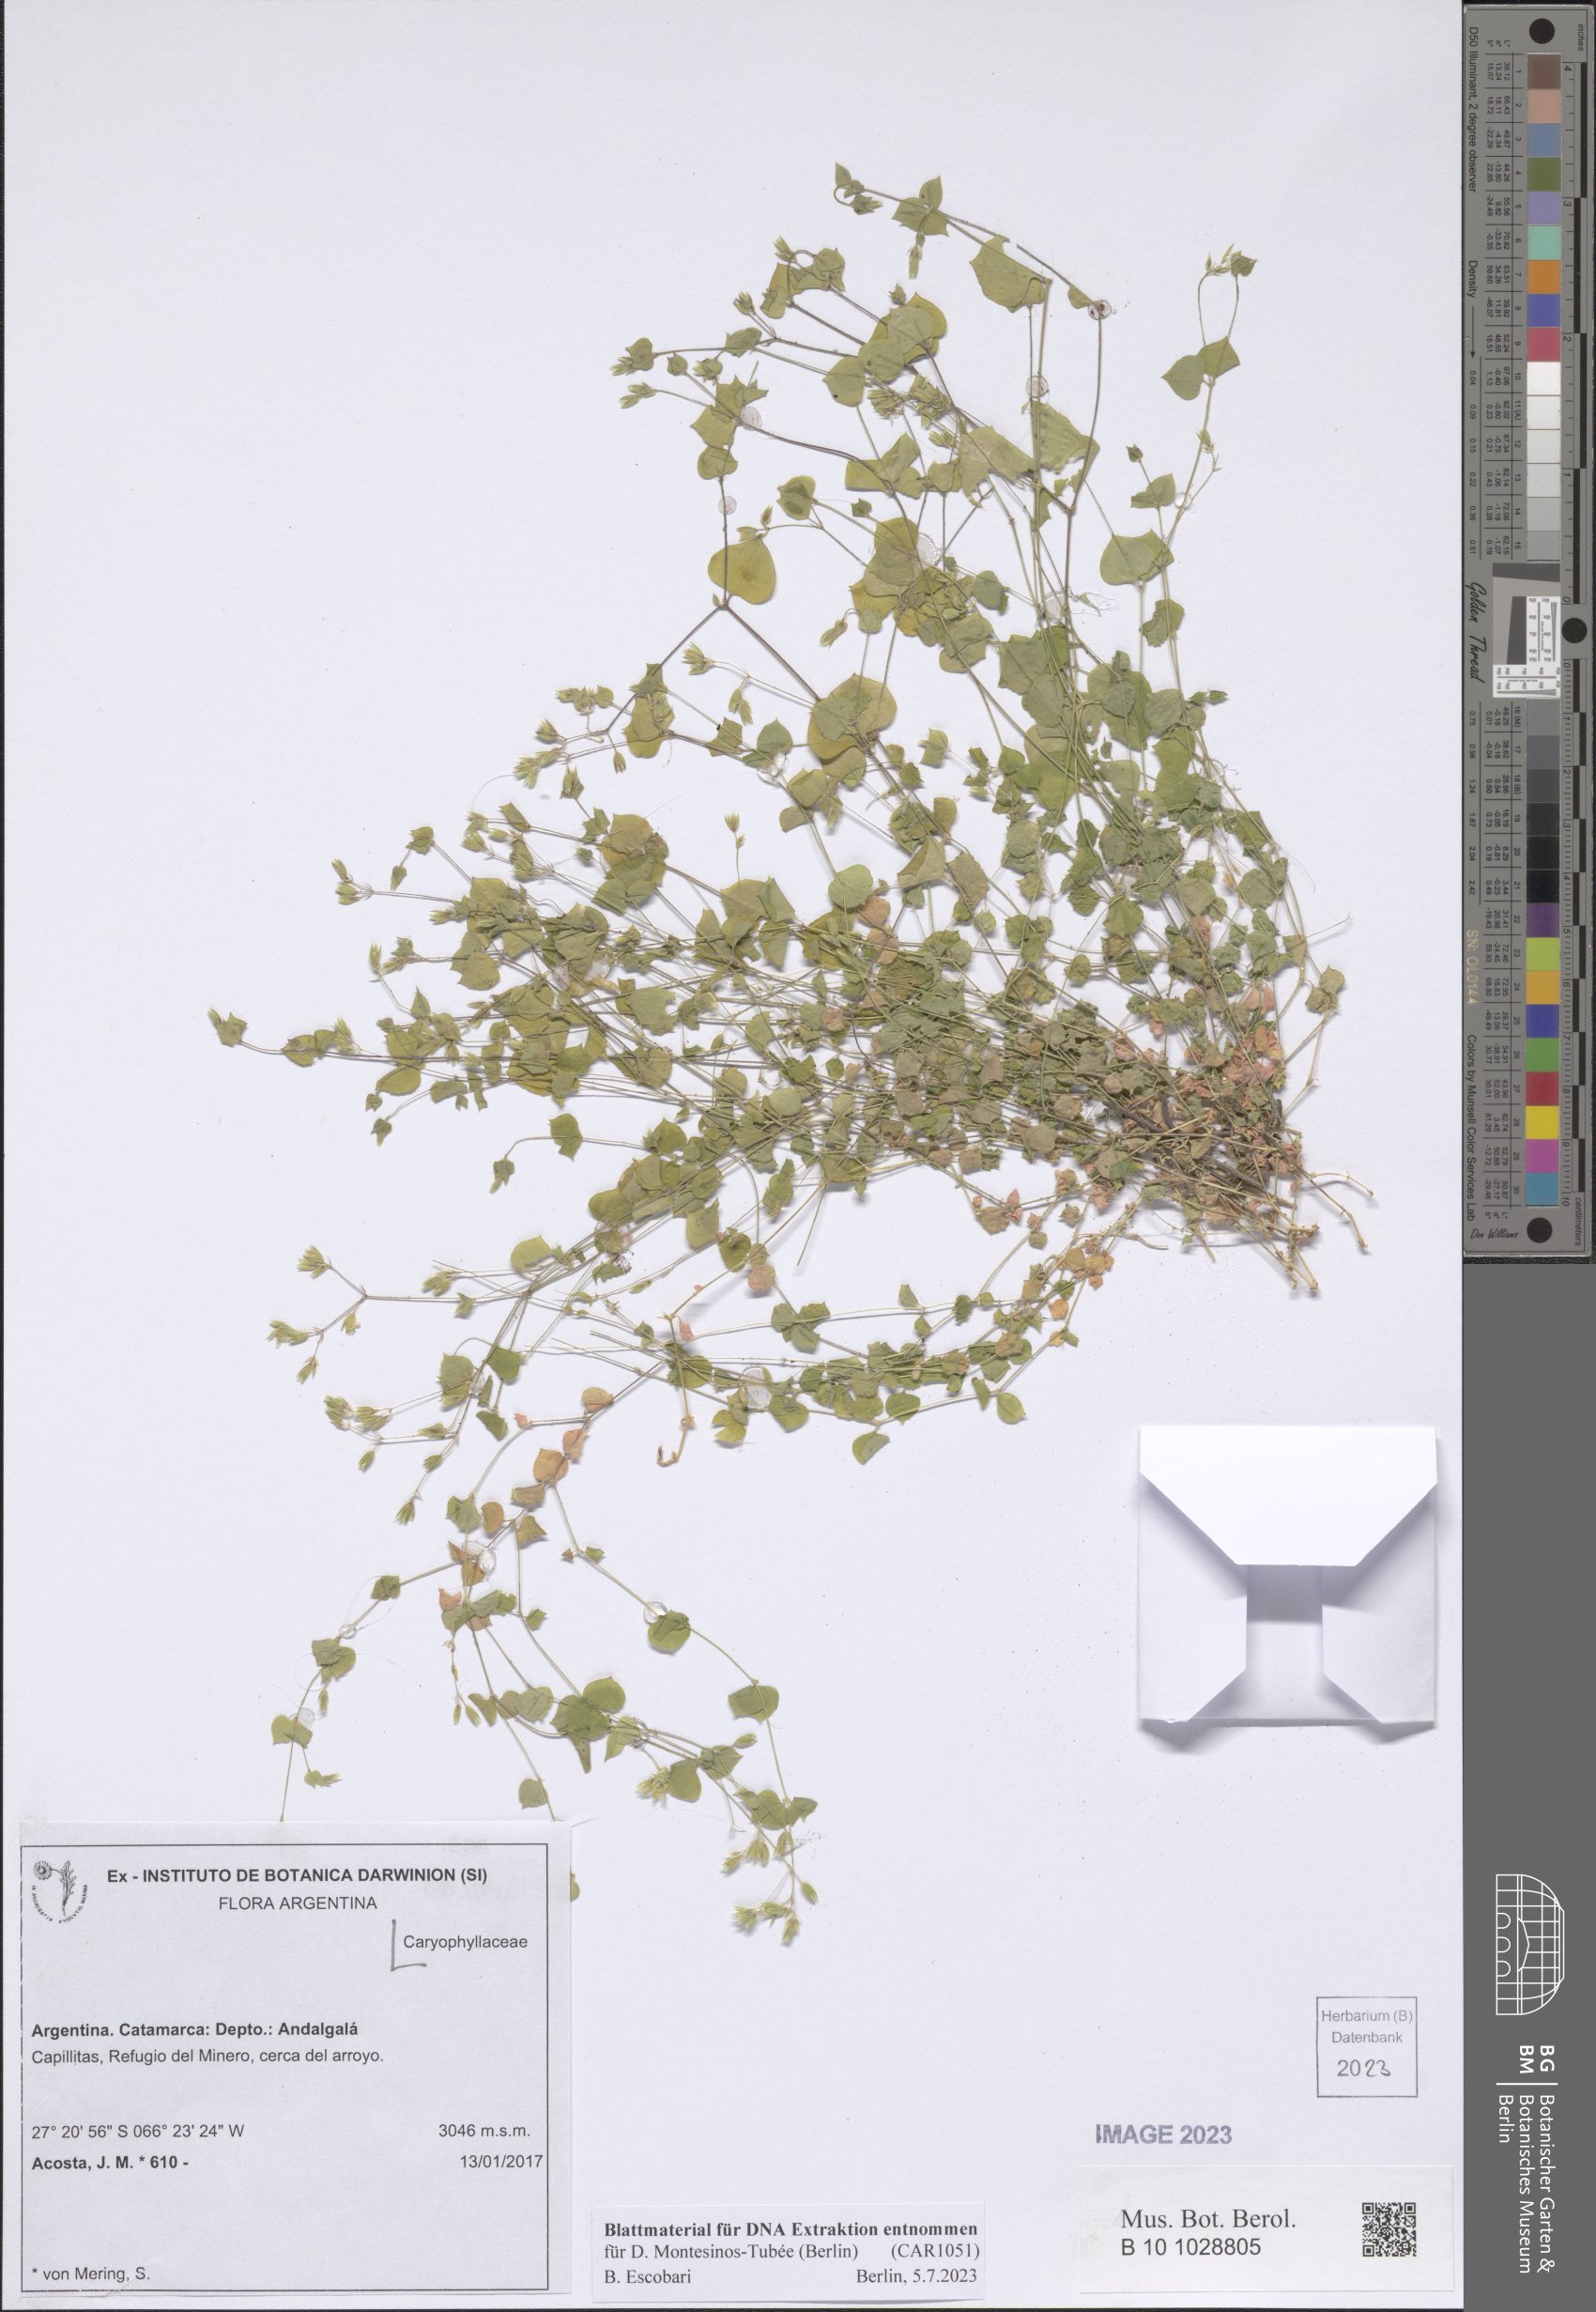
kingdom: Plantae
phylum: Tracheophyta
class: Magnoliopsida
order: Caryophyllales
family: Caryophyllaceae
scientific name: Caryophyllaceae
